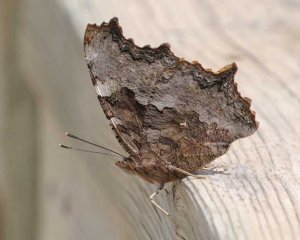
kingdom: Animalia
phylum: Arthropoda
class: Insecta
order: Lepidoptera
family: Nymphalidae
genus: Polygonia
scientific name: Polygonia vaualbum
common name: Compton Tortoiseshell
